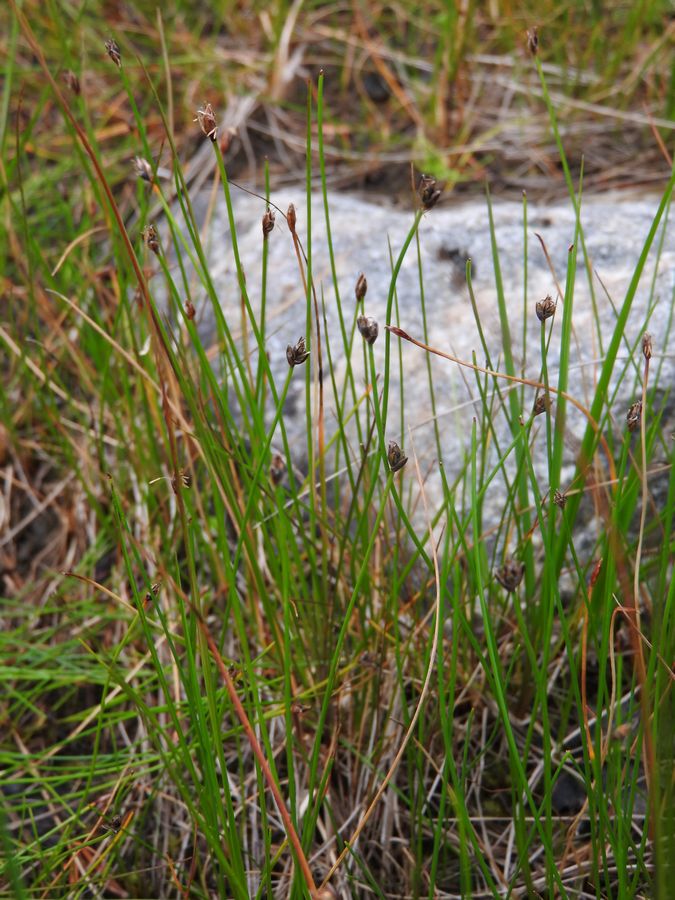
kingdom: Plantae
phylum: Tracheophyta
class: Liliopsida
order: Poales
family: Cyperaceae
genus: Eleocharis
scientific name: Eleocharis quinqueflora
